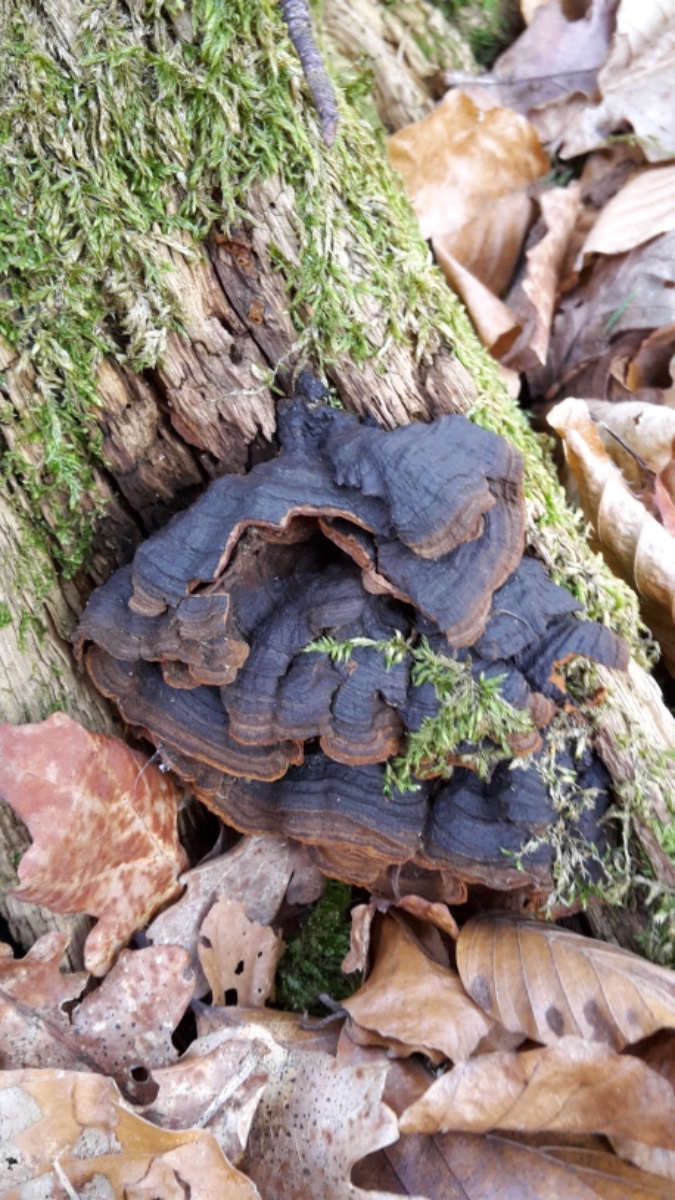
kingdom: Fungi
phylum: Basidiomycota
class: Agaricomycetes
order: Hymenochaetales
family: Hymenochaetaceae
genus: Hymenochaete
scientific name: Hymenochaete rubiginosa
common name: stiv ruslædersvamp
